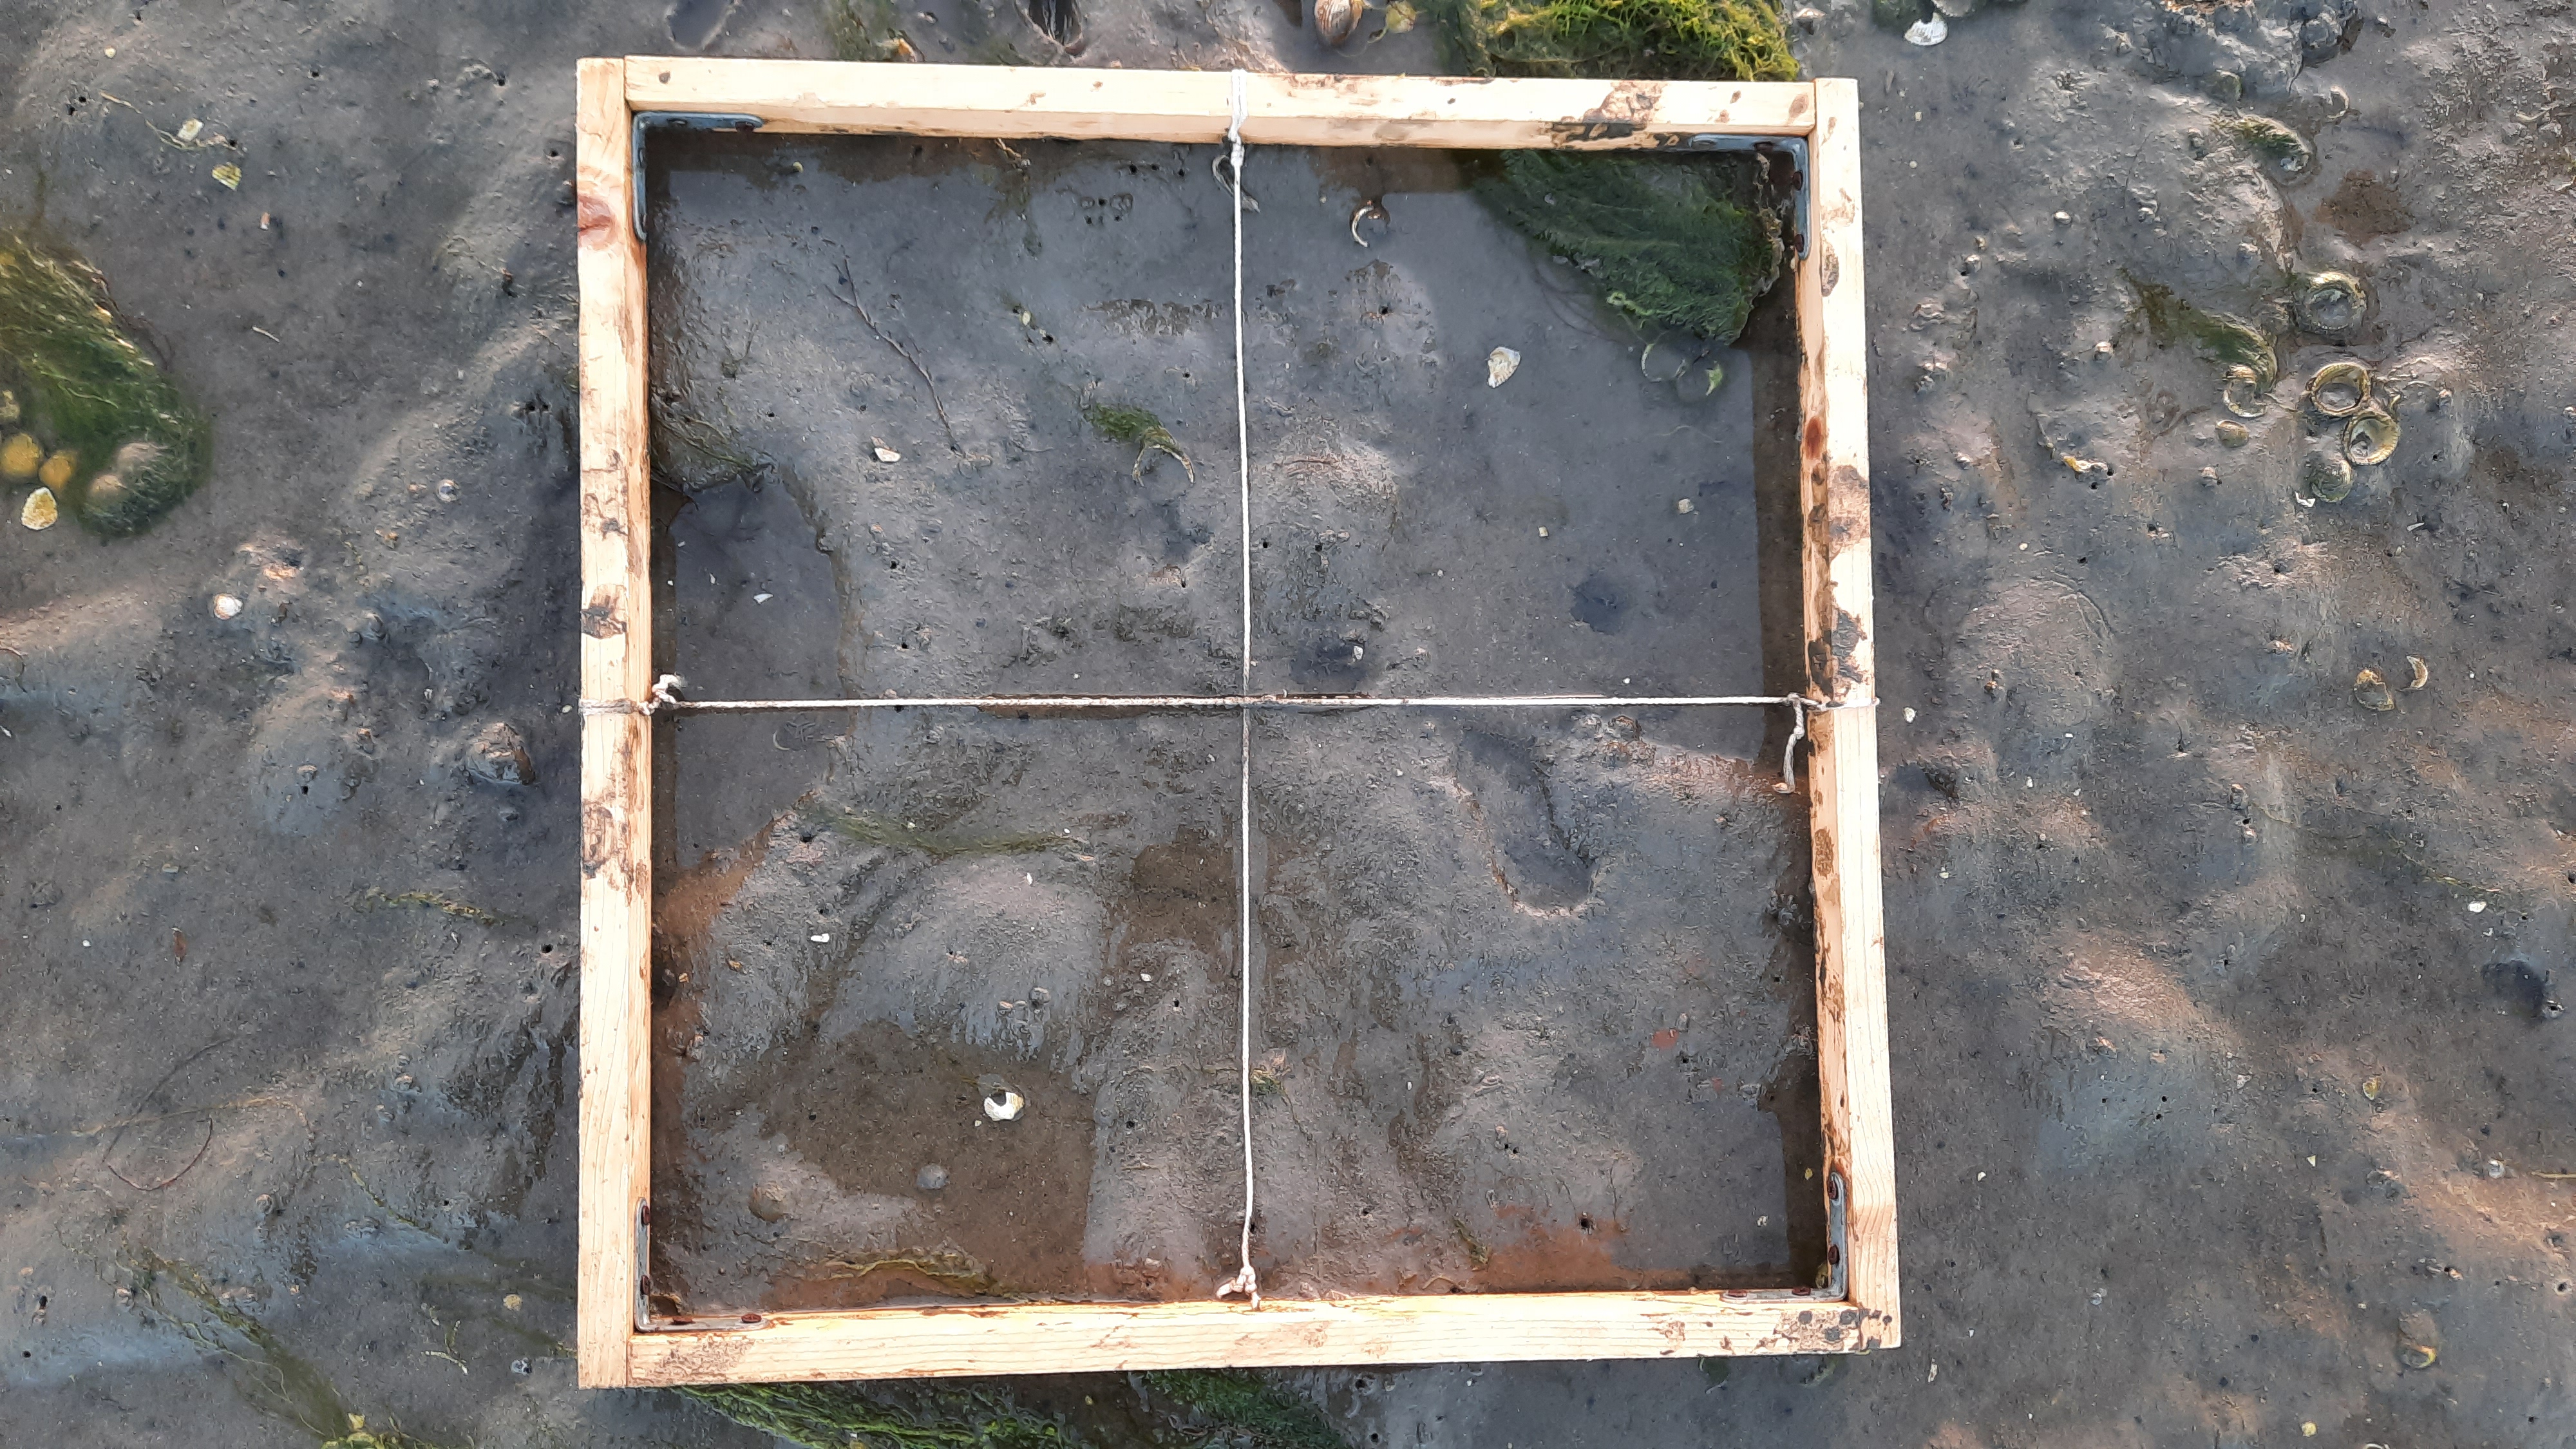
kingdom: Plantae
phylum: Chlorophyta
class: Ulvophyceae
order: Ulvales
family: Ulvaceae
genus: Ulva
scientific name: Ulva
